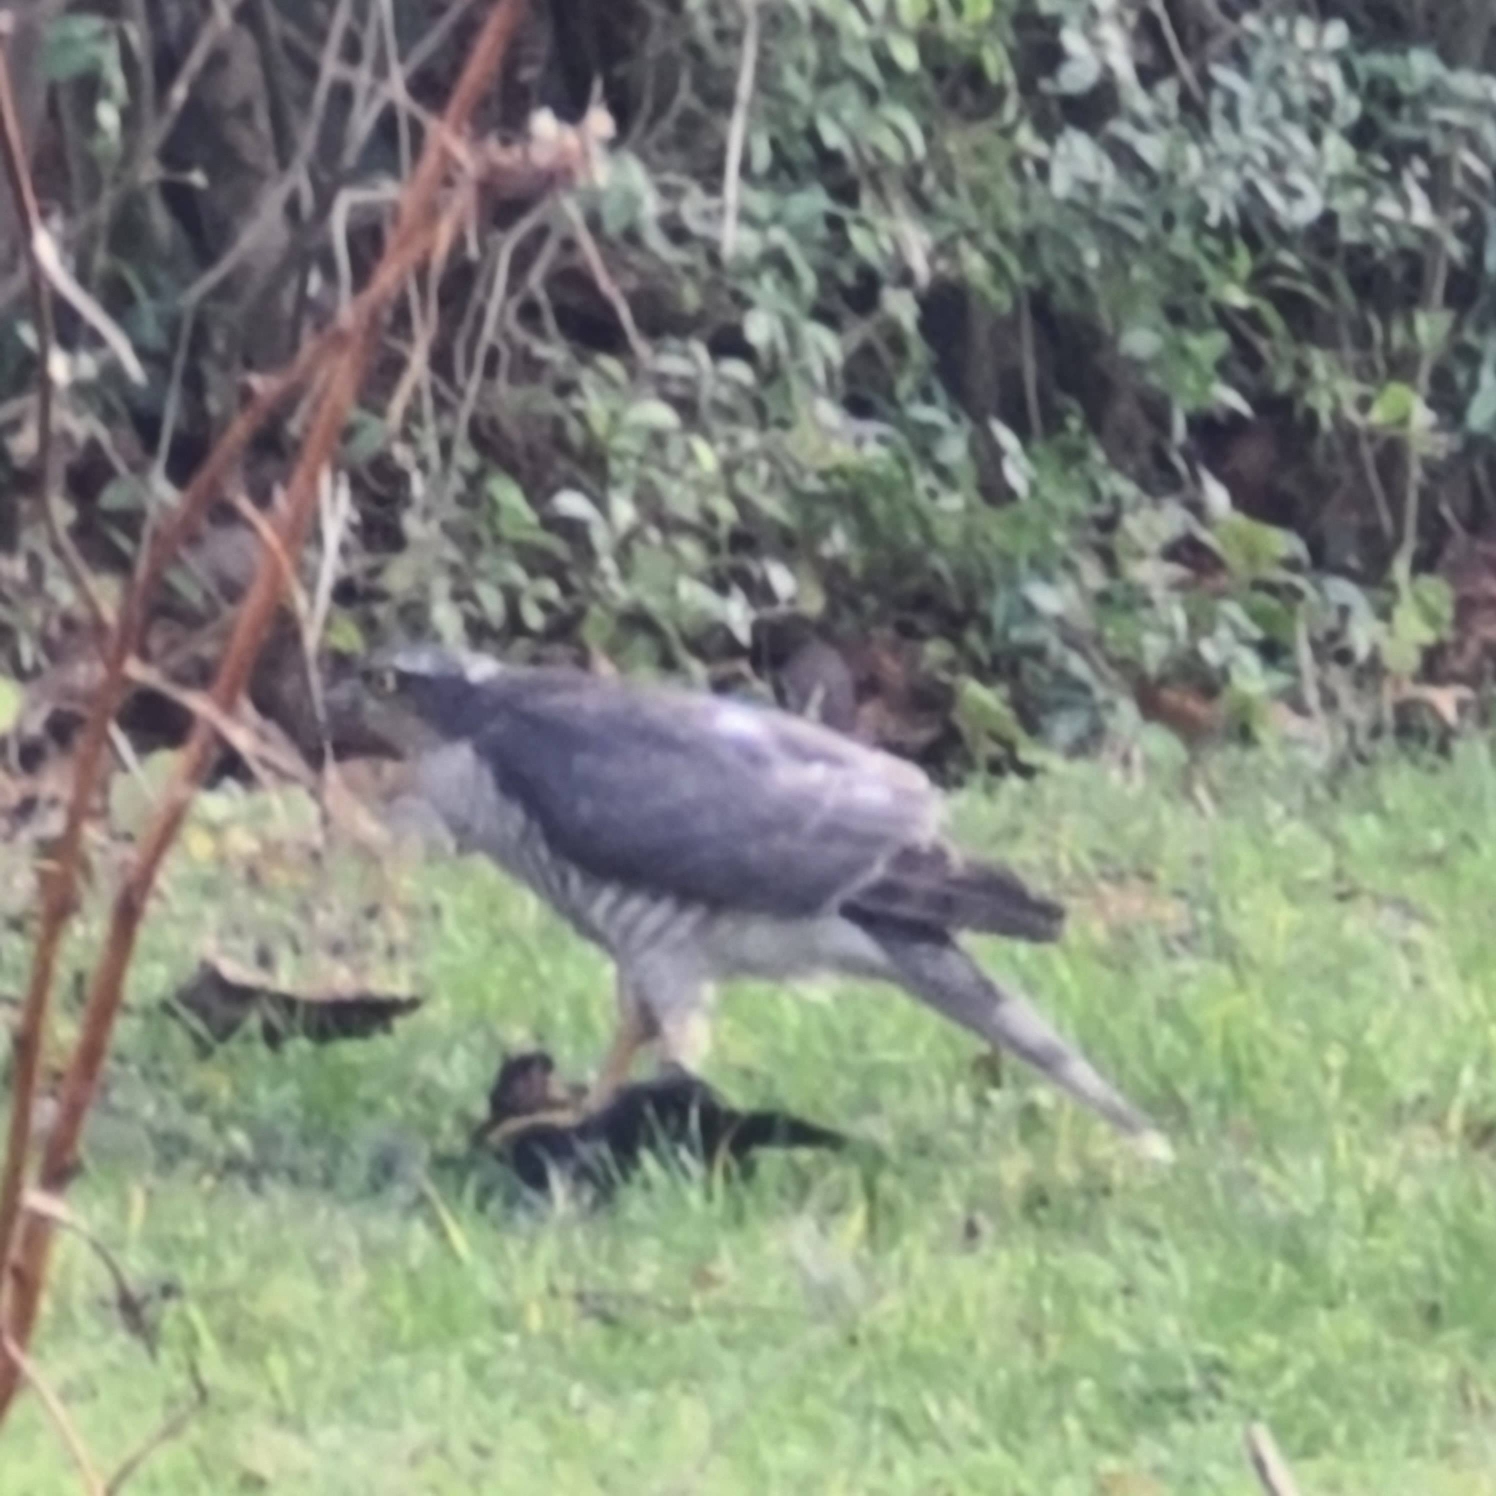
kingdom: Animalia
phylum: Chordata
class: Aves
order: Accipitriformes
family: Accipitridae
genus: Accipiter
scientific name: Accipiter nisus
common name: Spurvehøg
